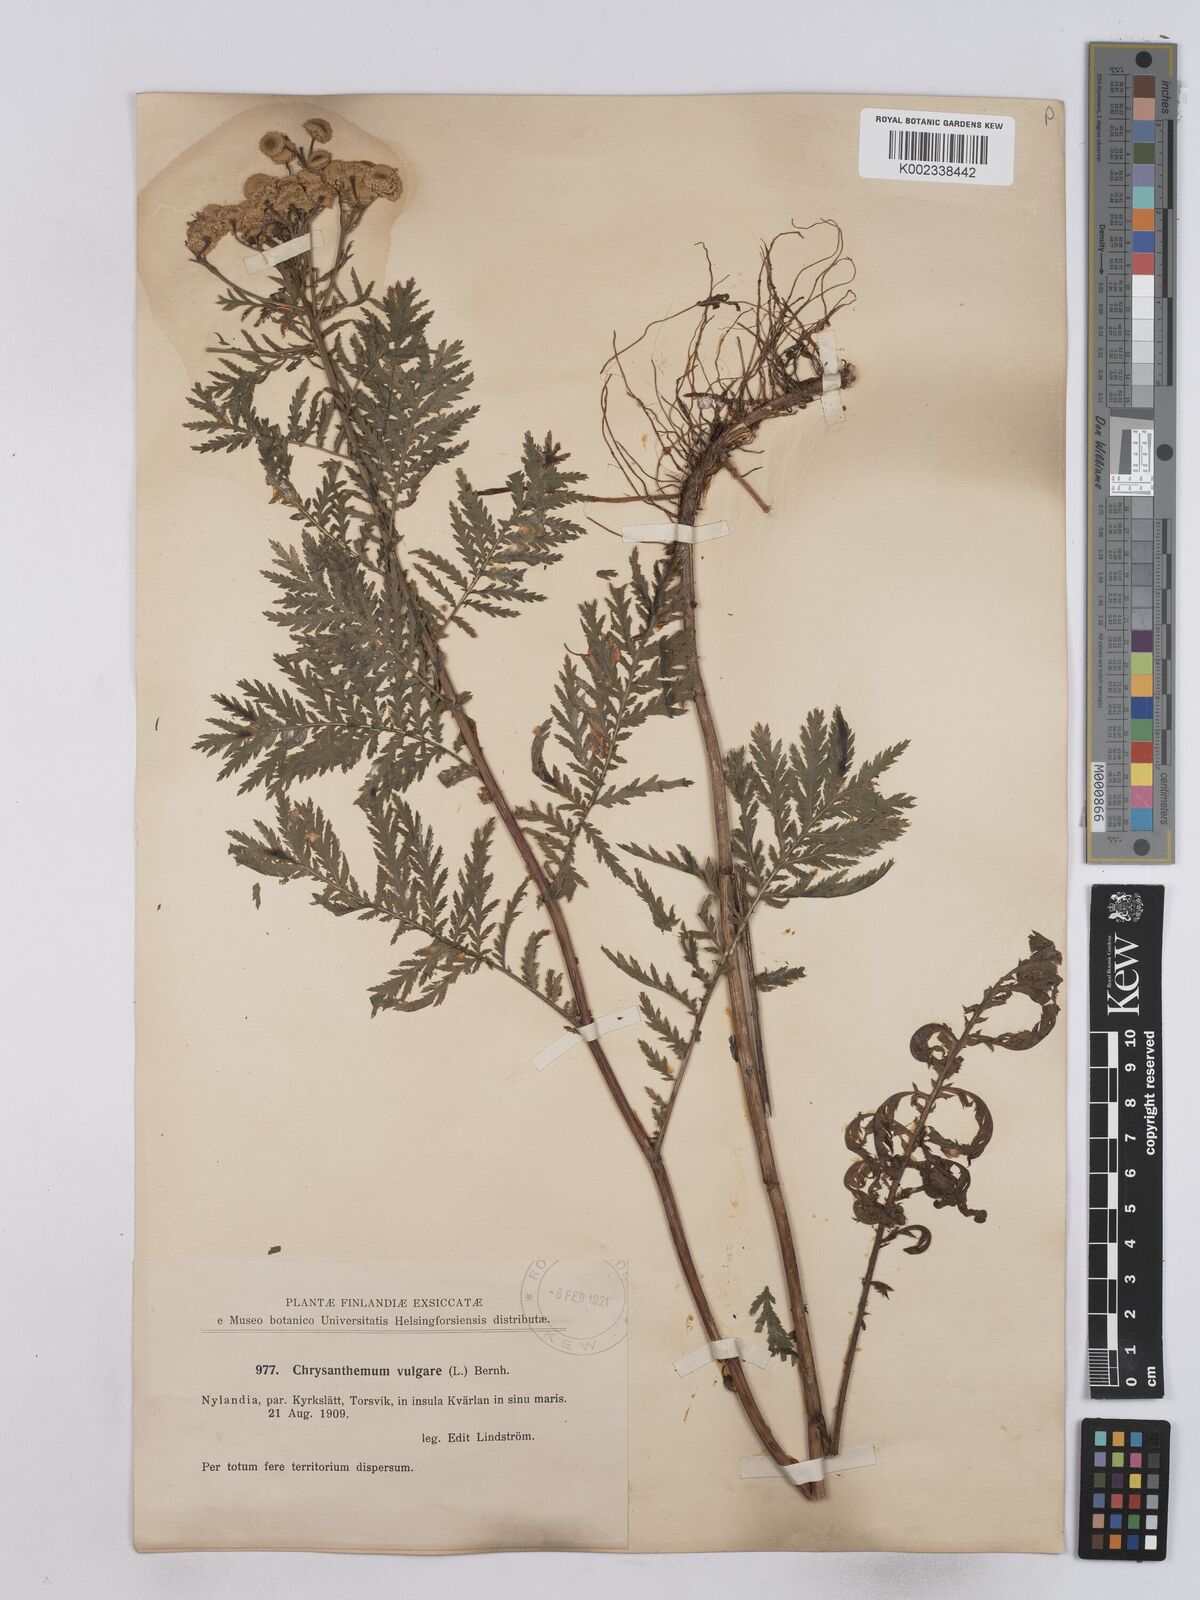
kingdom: Plantae
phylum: Tracheophyta
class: Magnoliopsida
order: Asterales
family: Asteraceae
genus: Tanacetum
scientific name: Tanacetum vulgare
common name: Common tansy
